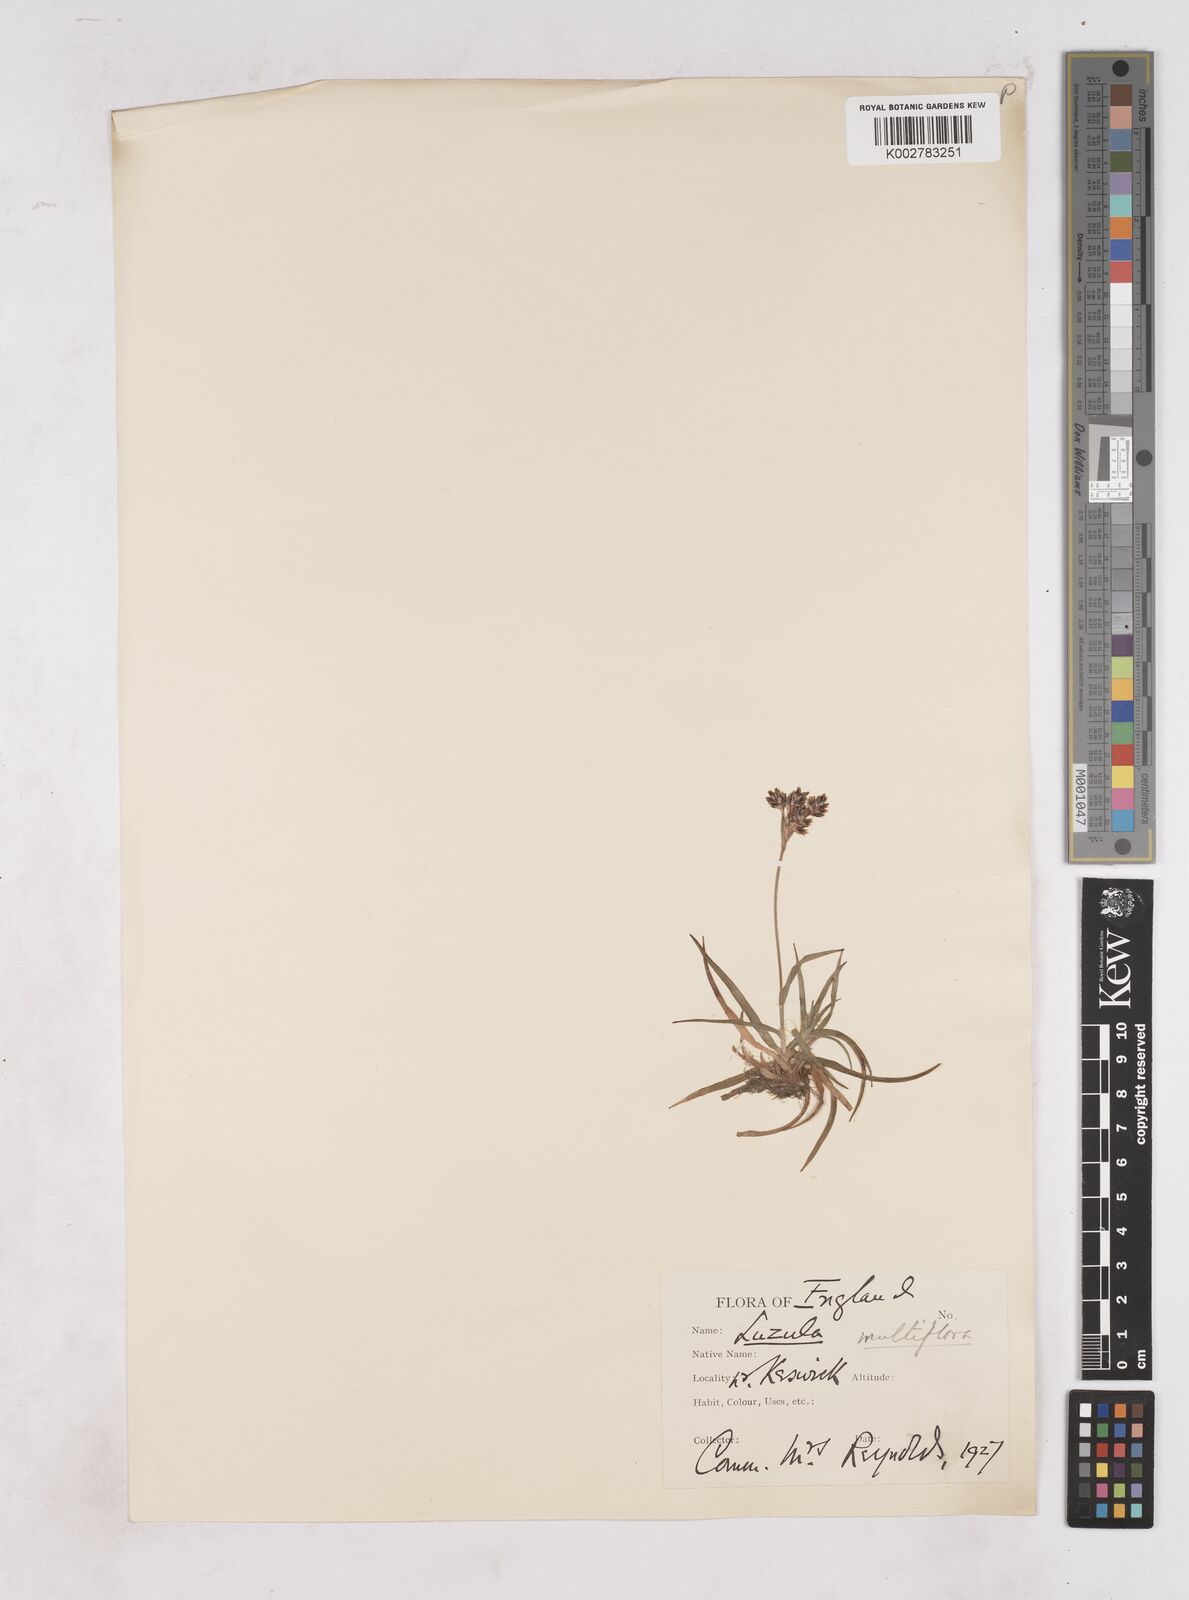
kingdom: Plantae
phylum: Tracheophyta
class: Liliopsida
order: Poales
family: Juncaceae
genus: Luzula
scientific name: Luzula multiflora
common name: Heath wood-rush
